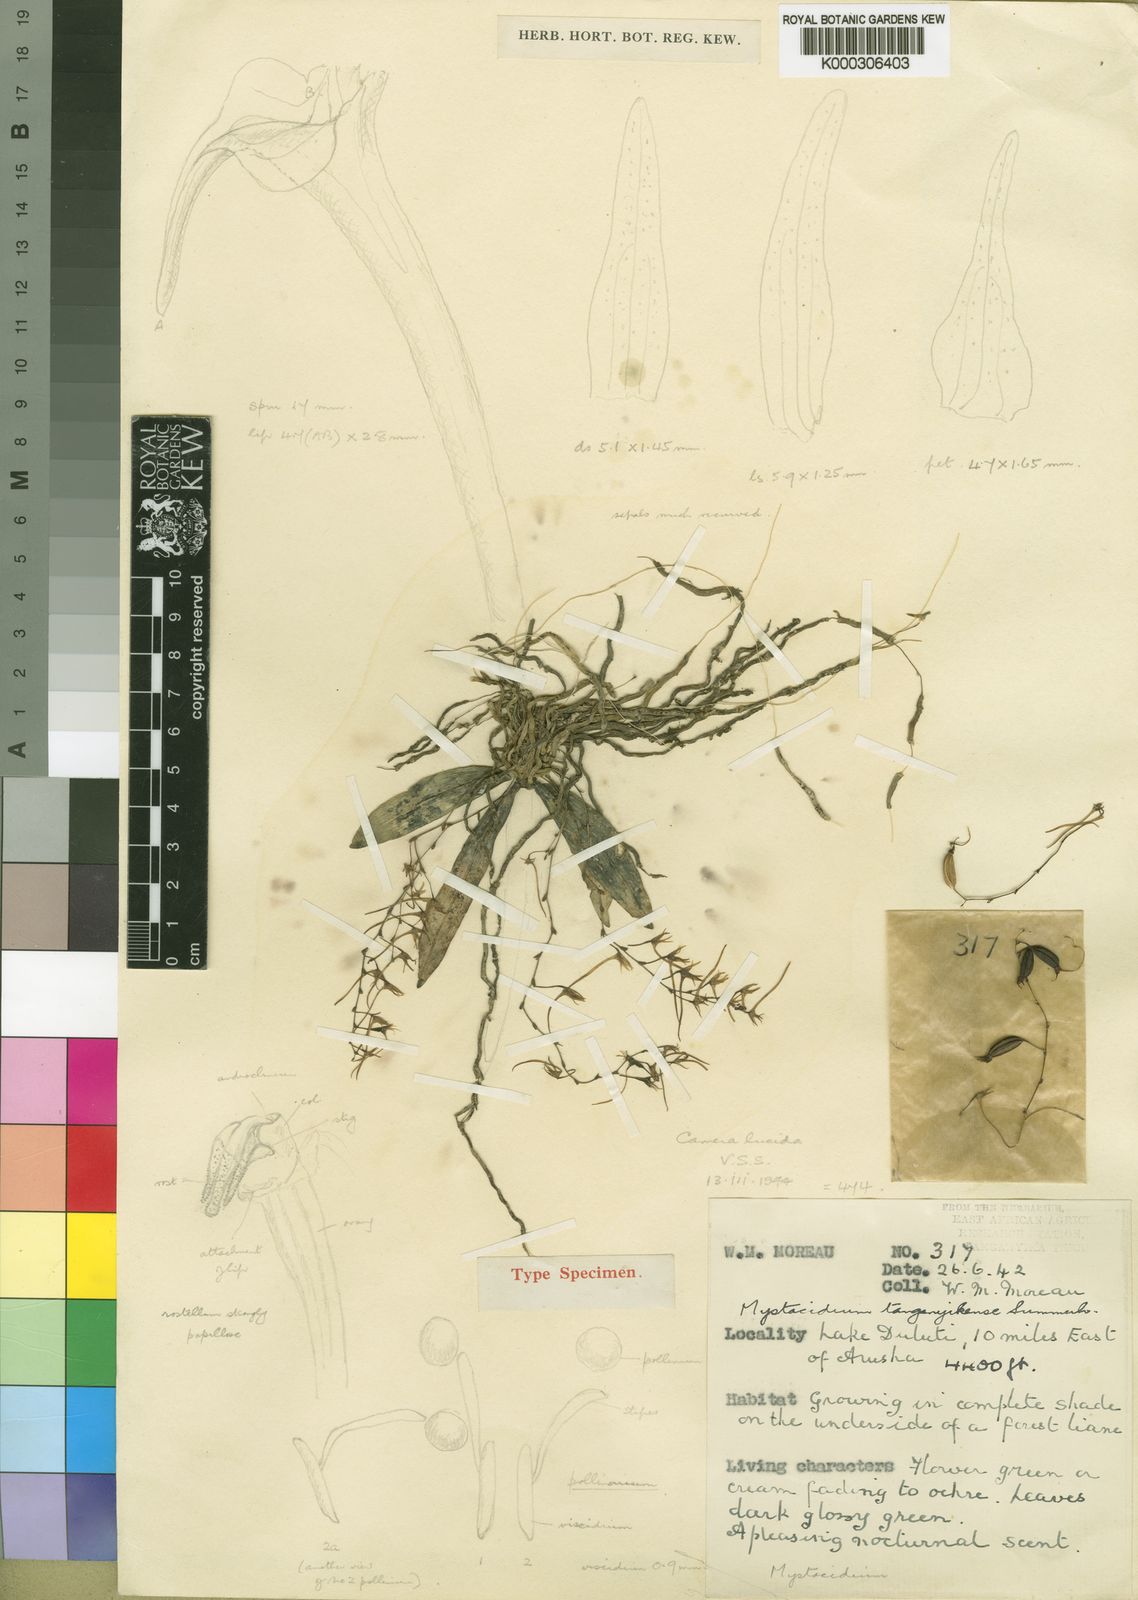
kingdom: Plantae
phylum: Tracheophyta
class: Liliopsida
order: Asparagales
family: Orchidaceae
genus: Mystacidium
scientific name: Mystacidium tanganyikense
